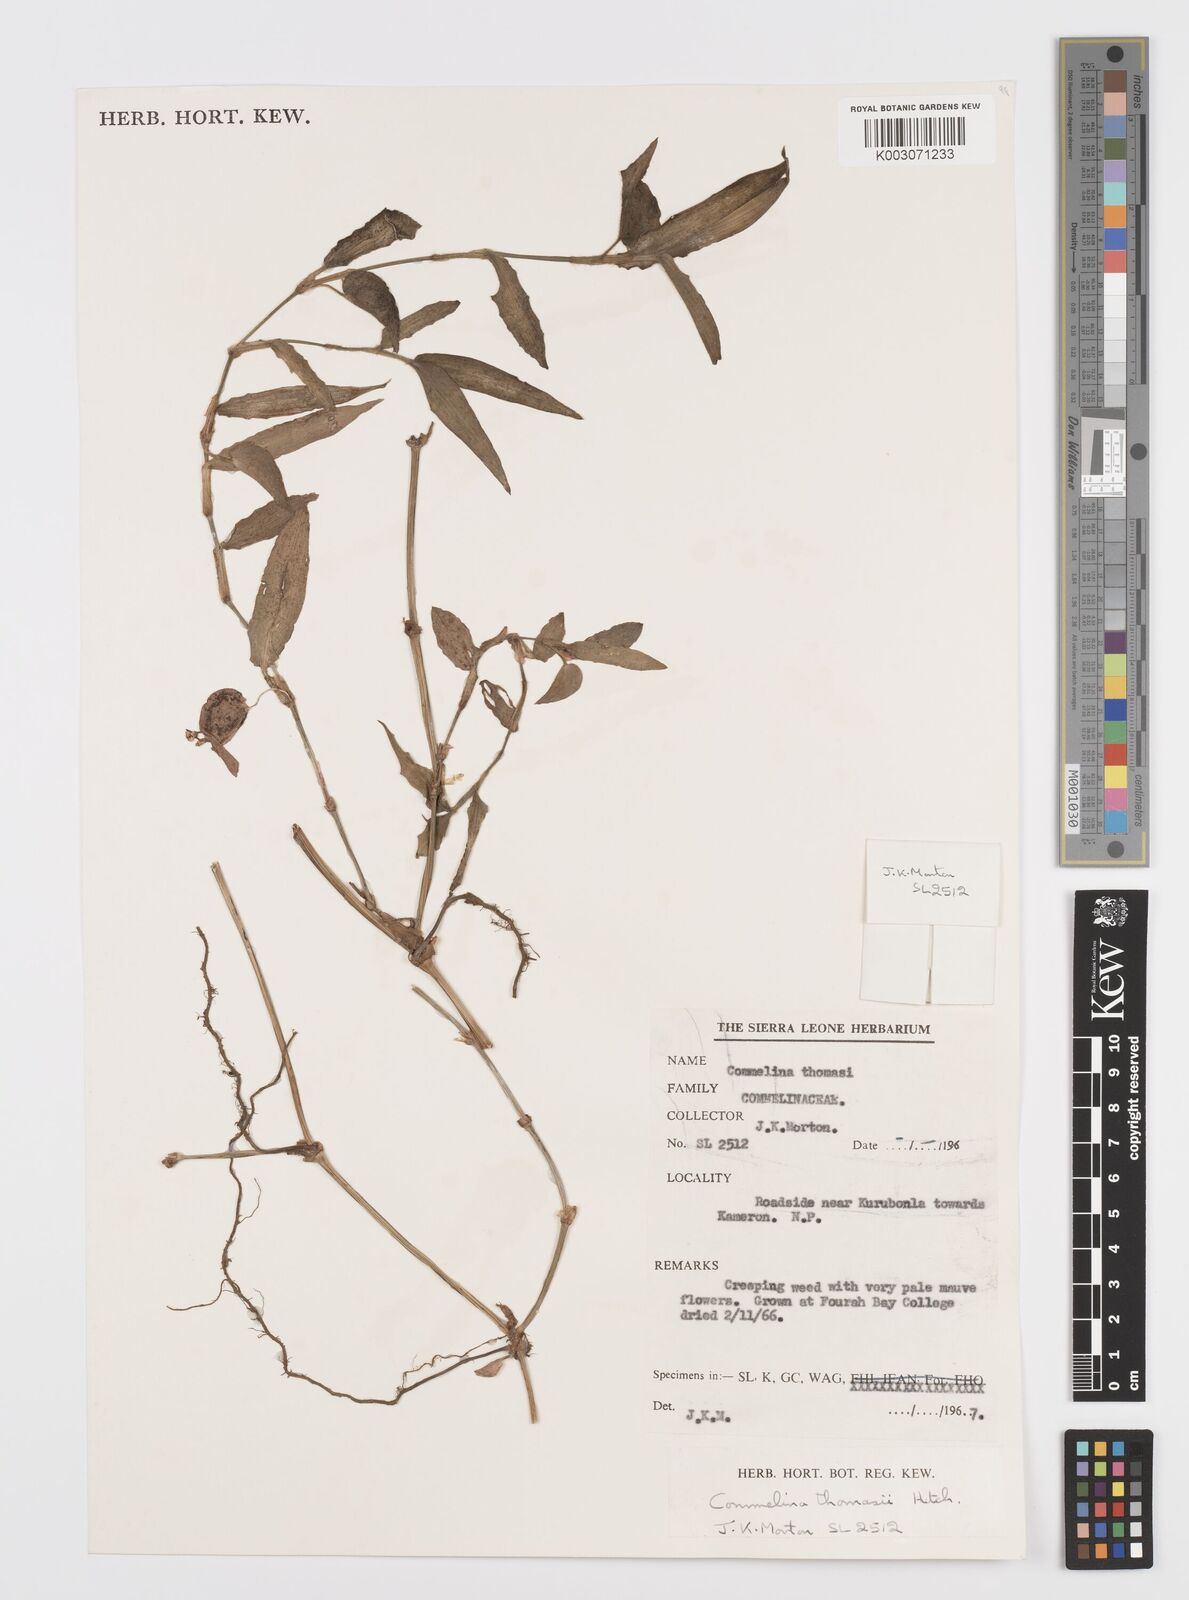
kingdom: Plantae
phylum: Tracheophyta
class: Liliopsida
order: Commelinales
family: Commelinaceae
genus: Commelina
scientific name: Commelina acutispatha
